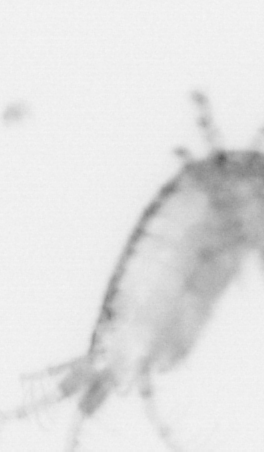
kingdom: Animalia
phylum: Arthropoda
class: Copepoda
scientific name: Copepoda
